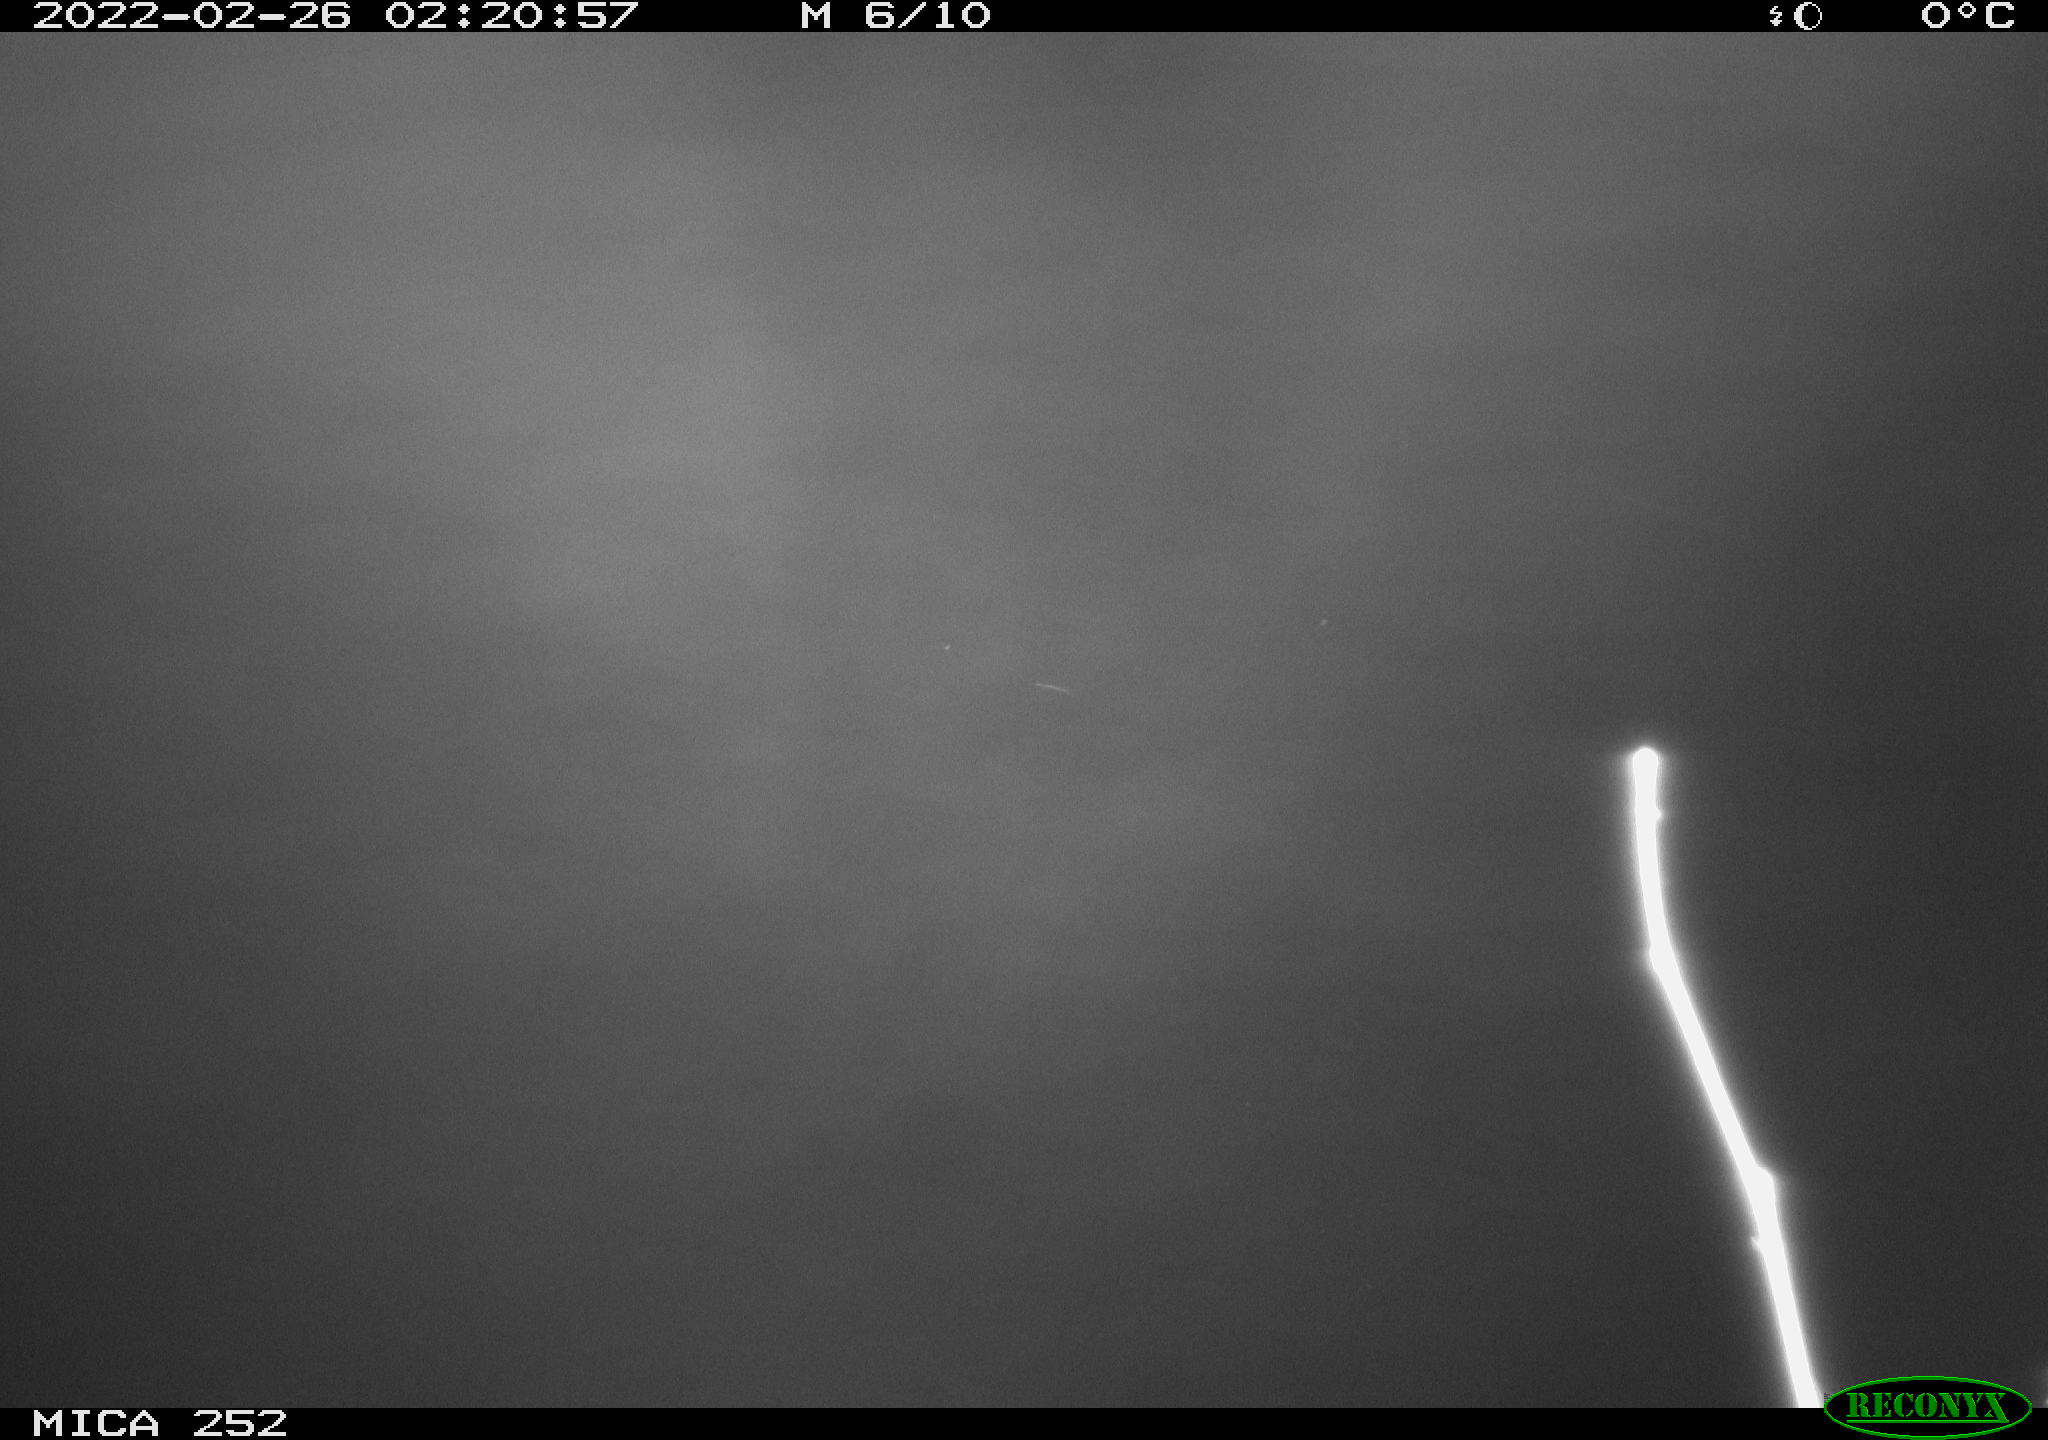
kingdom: Animalia
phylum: Chordata
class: Mammalia
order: Rodentia
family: Castoridae
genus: Castor
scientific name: Castor fiber
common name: Eurasian beaver
